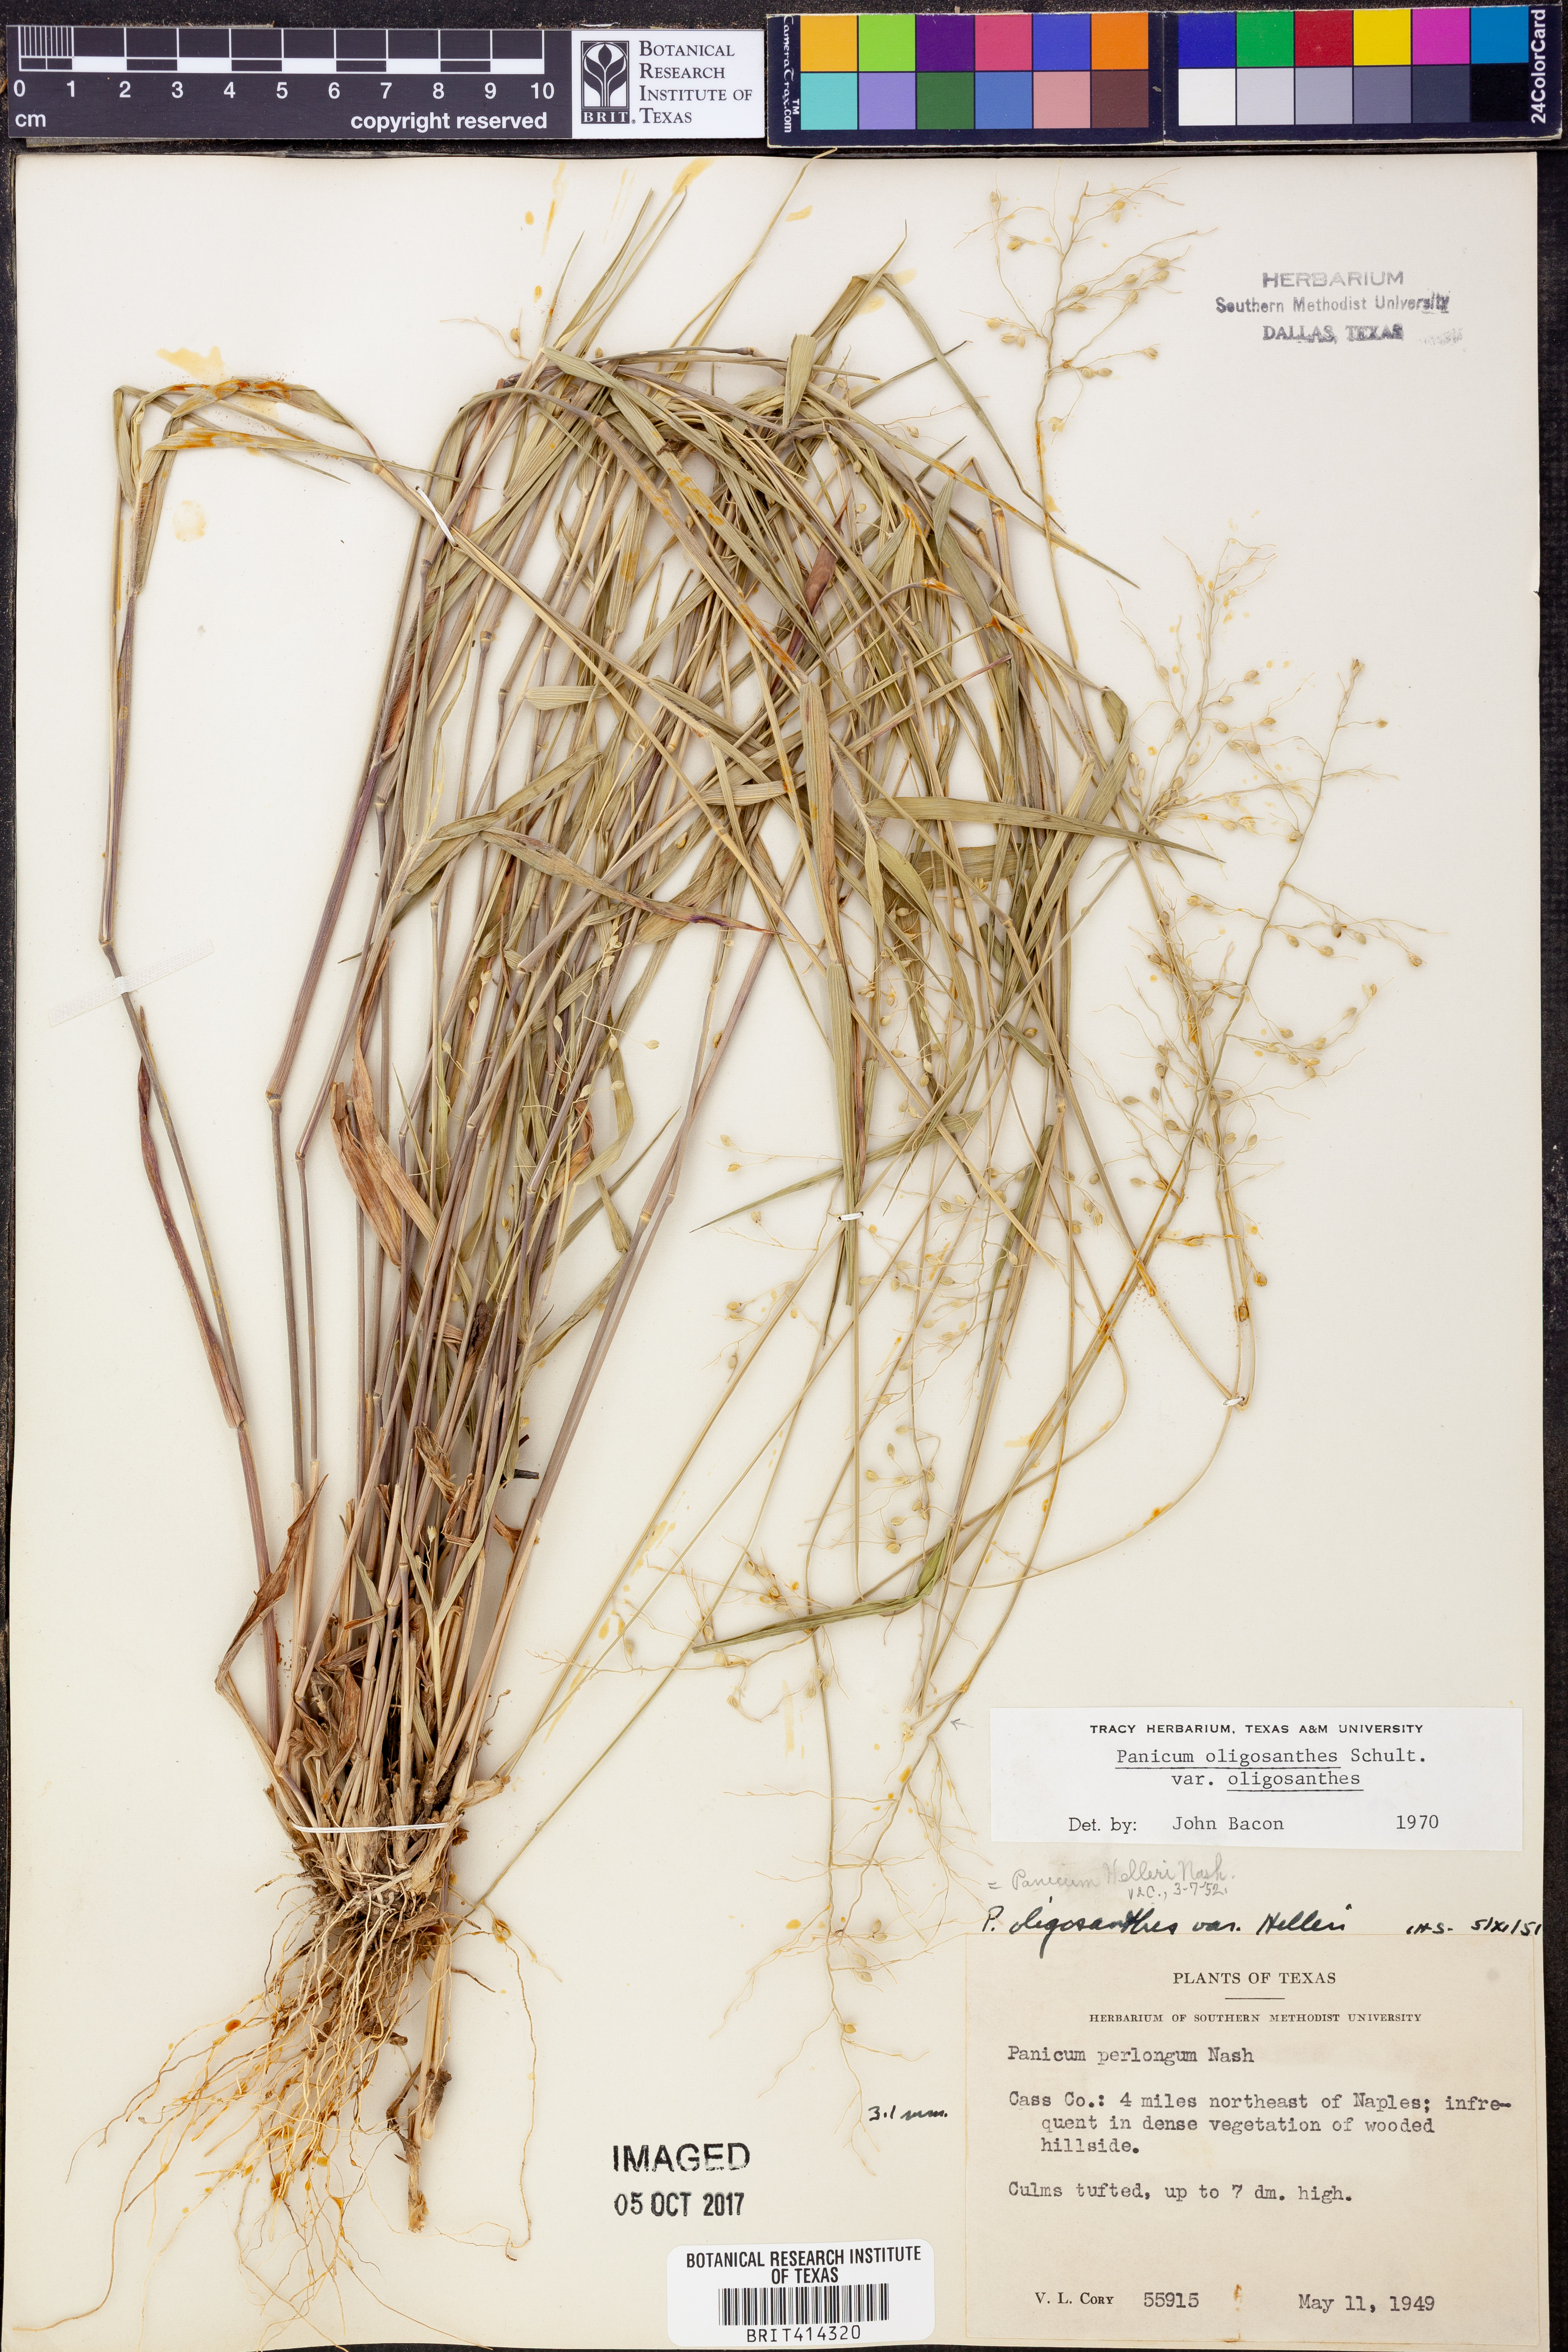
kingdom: Plantae
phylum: Tracheophyta
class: Liliopsida
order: Poales
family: Poaceae
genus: Dichanthelium
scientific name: Dichanthelium oligosanthes
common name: Few-anther obscuregrass
